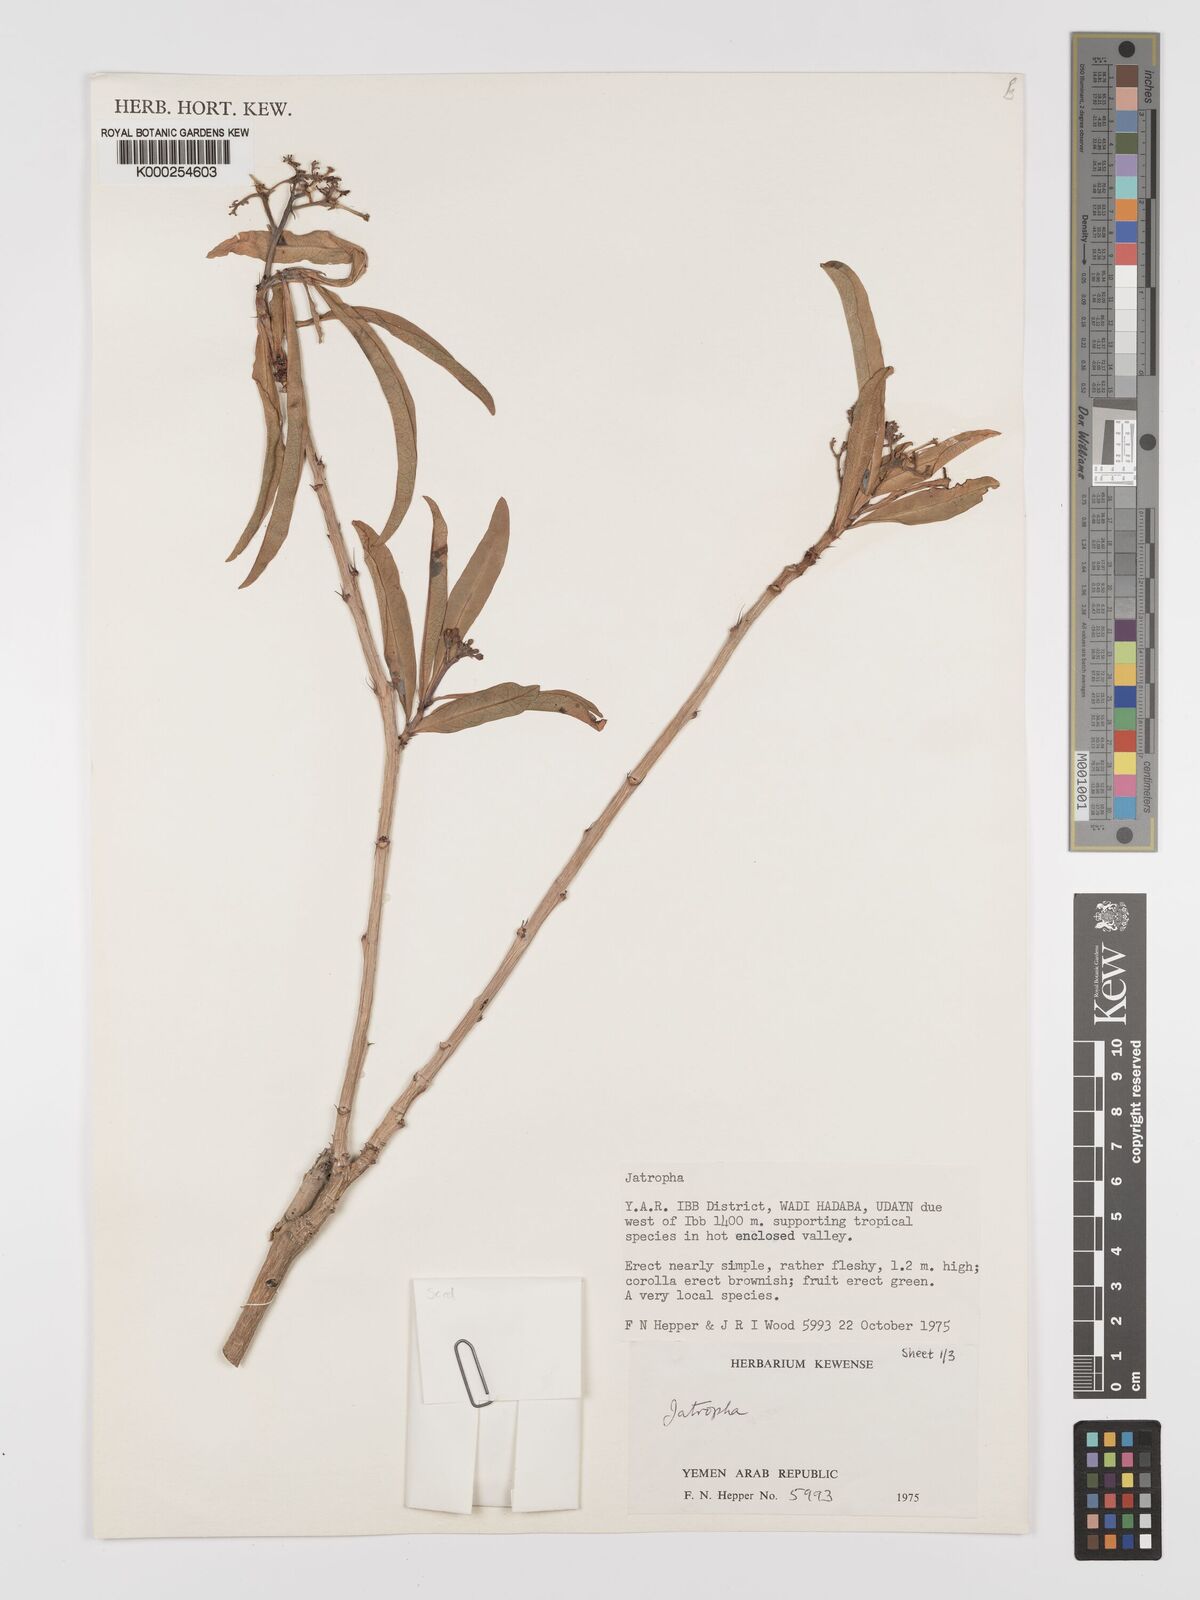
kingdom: Plantae
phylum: Tracheophyta
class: Magnoliopsida
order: Malpighiales
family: Euphorbiaceae
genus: Jatropha
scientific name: Jatropha variegata
